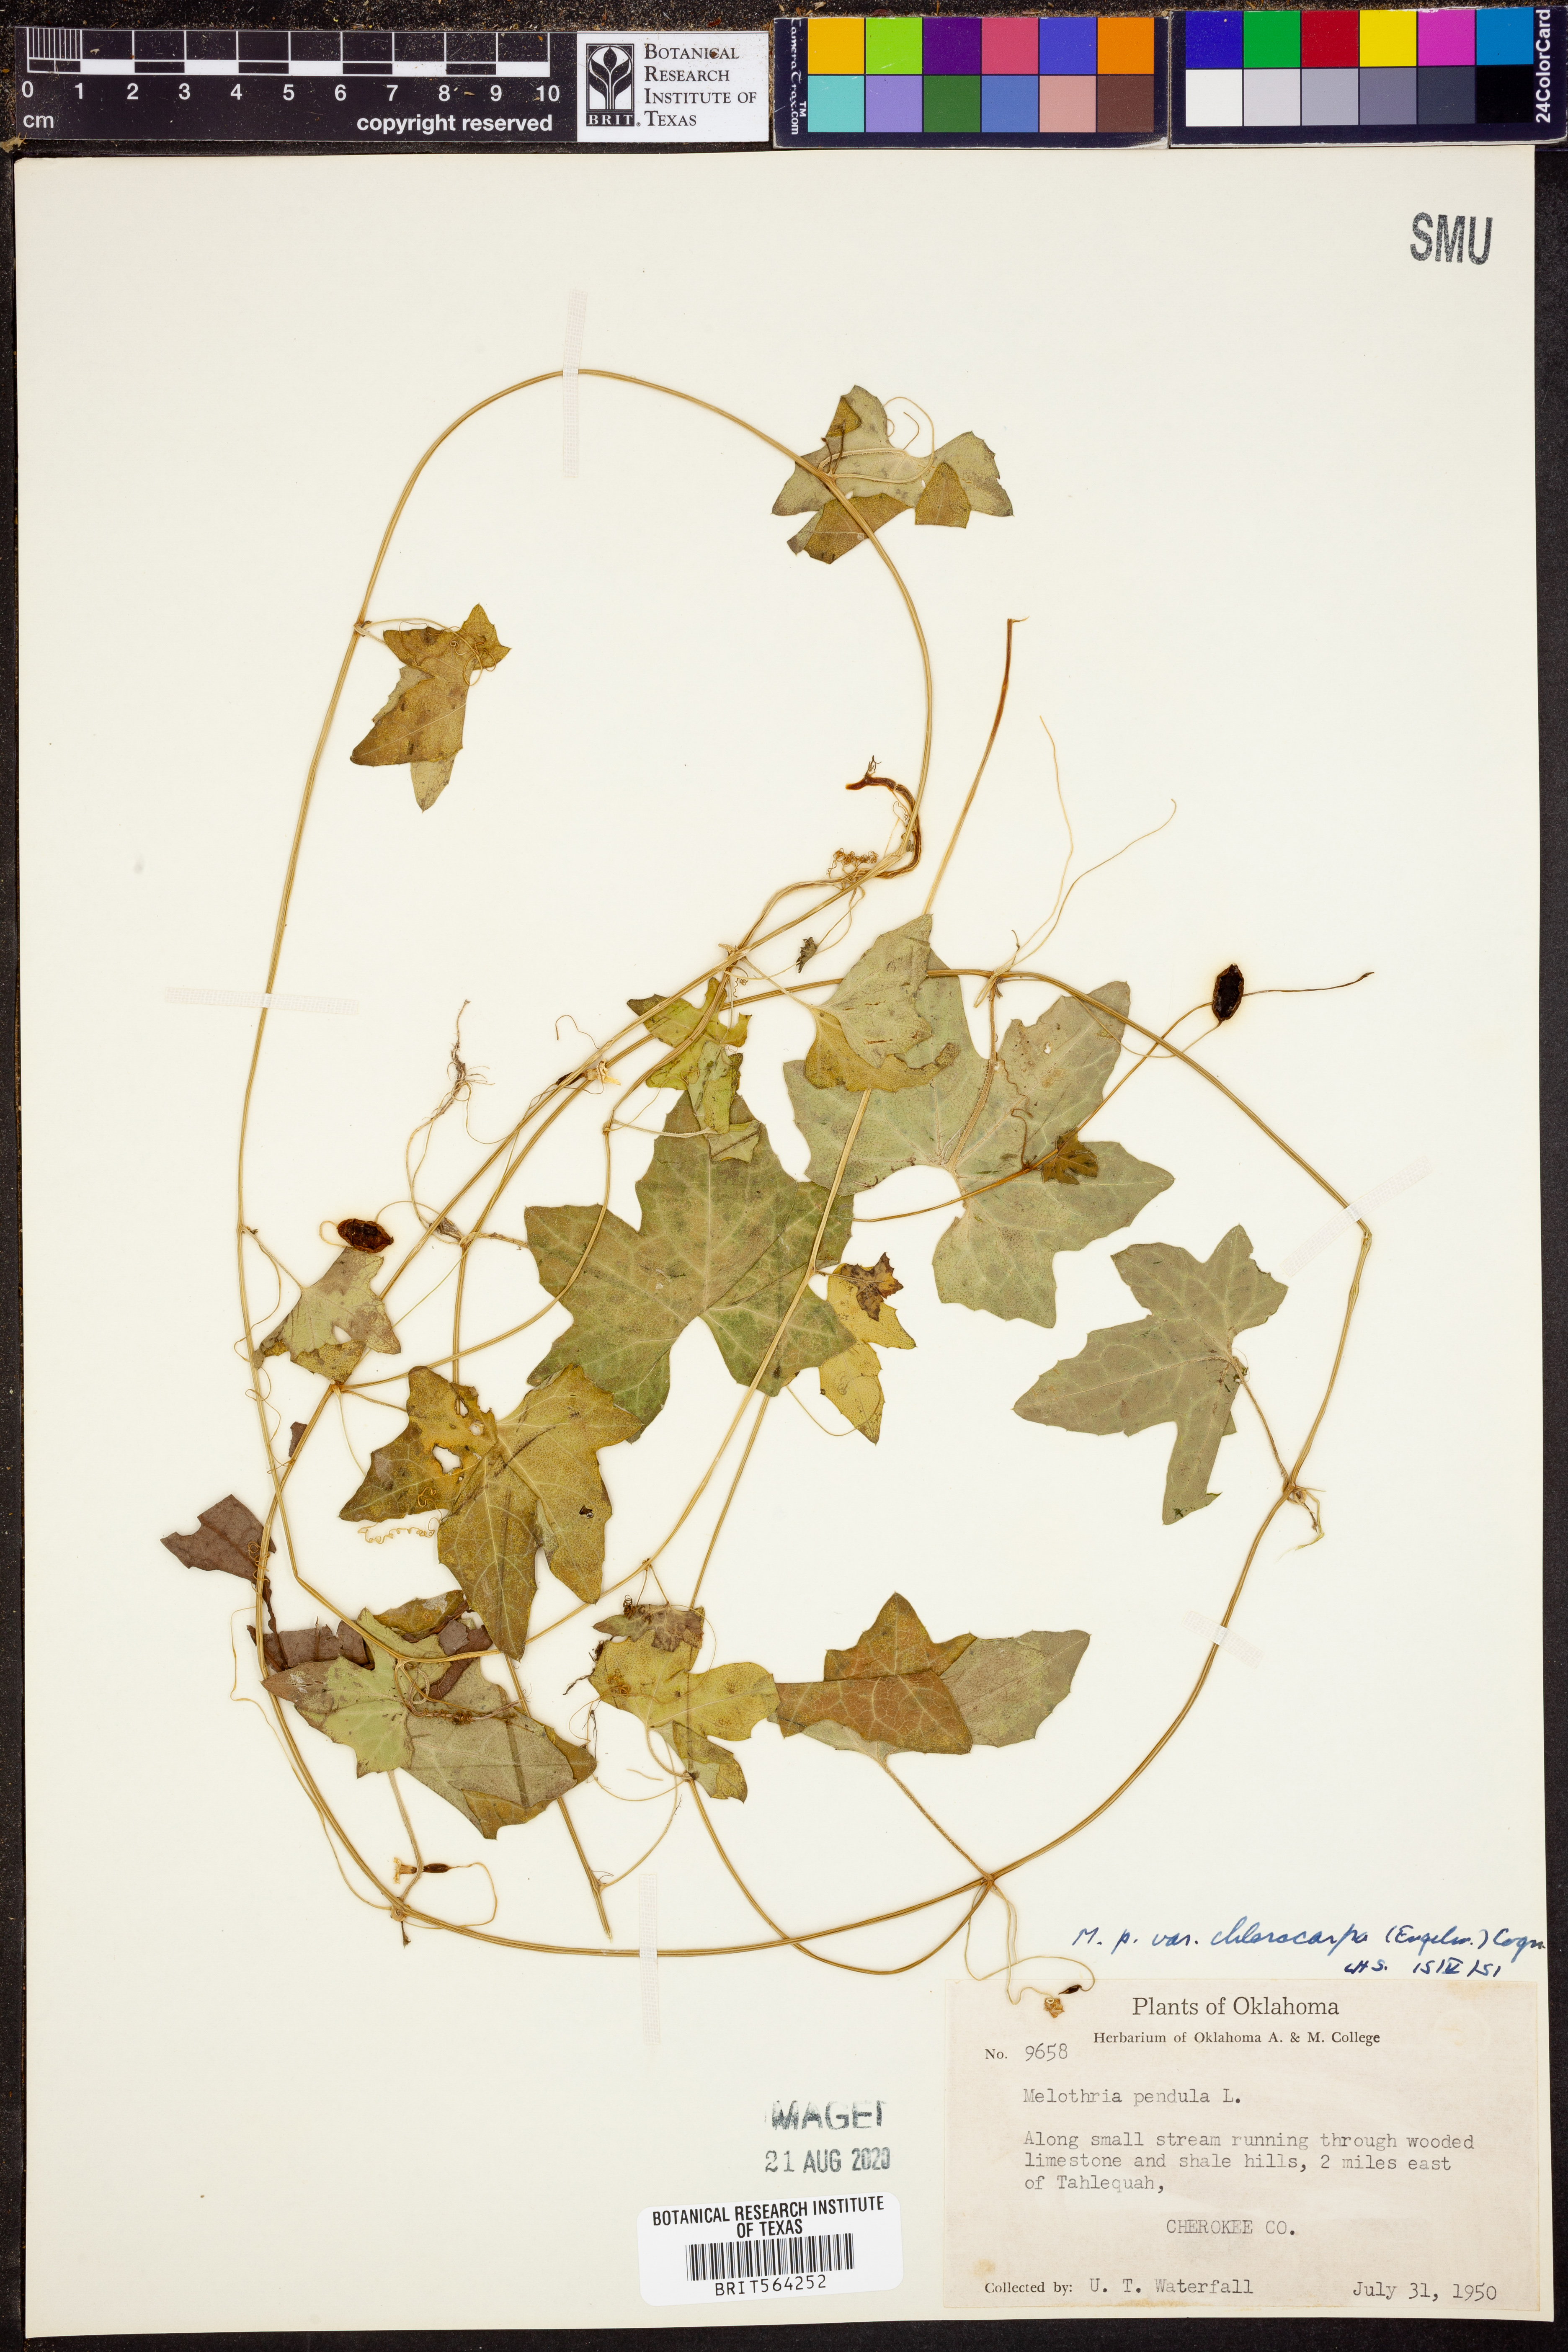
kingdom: Plantae
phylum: Tracheophyta
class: Magnoliopsida
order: Cucurbitales
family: Cucurbitaceae
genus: Melothria
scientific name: Melothria pendula
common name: Creeping-cucumber
